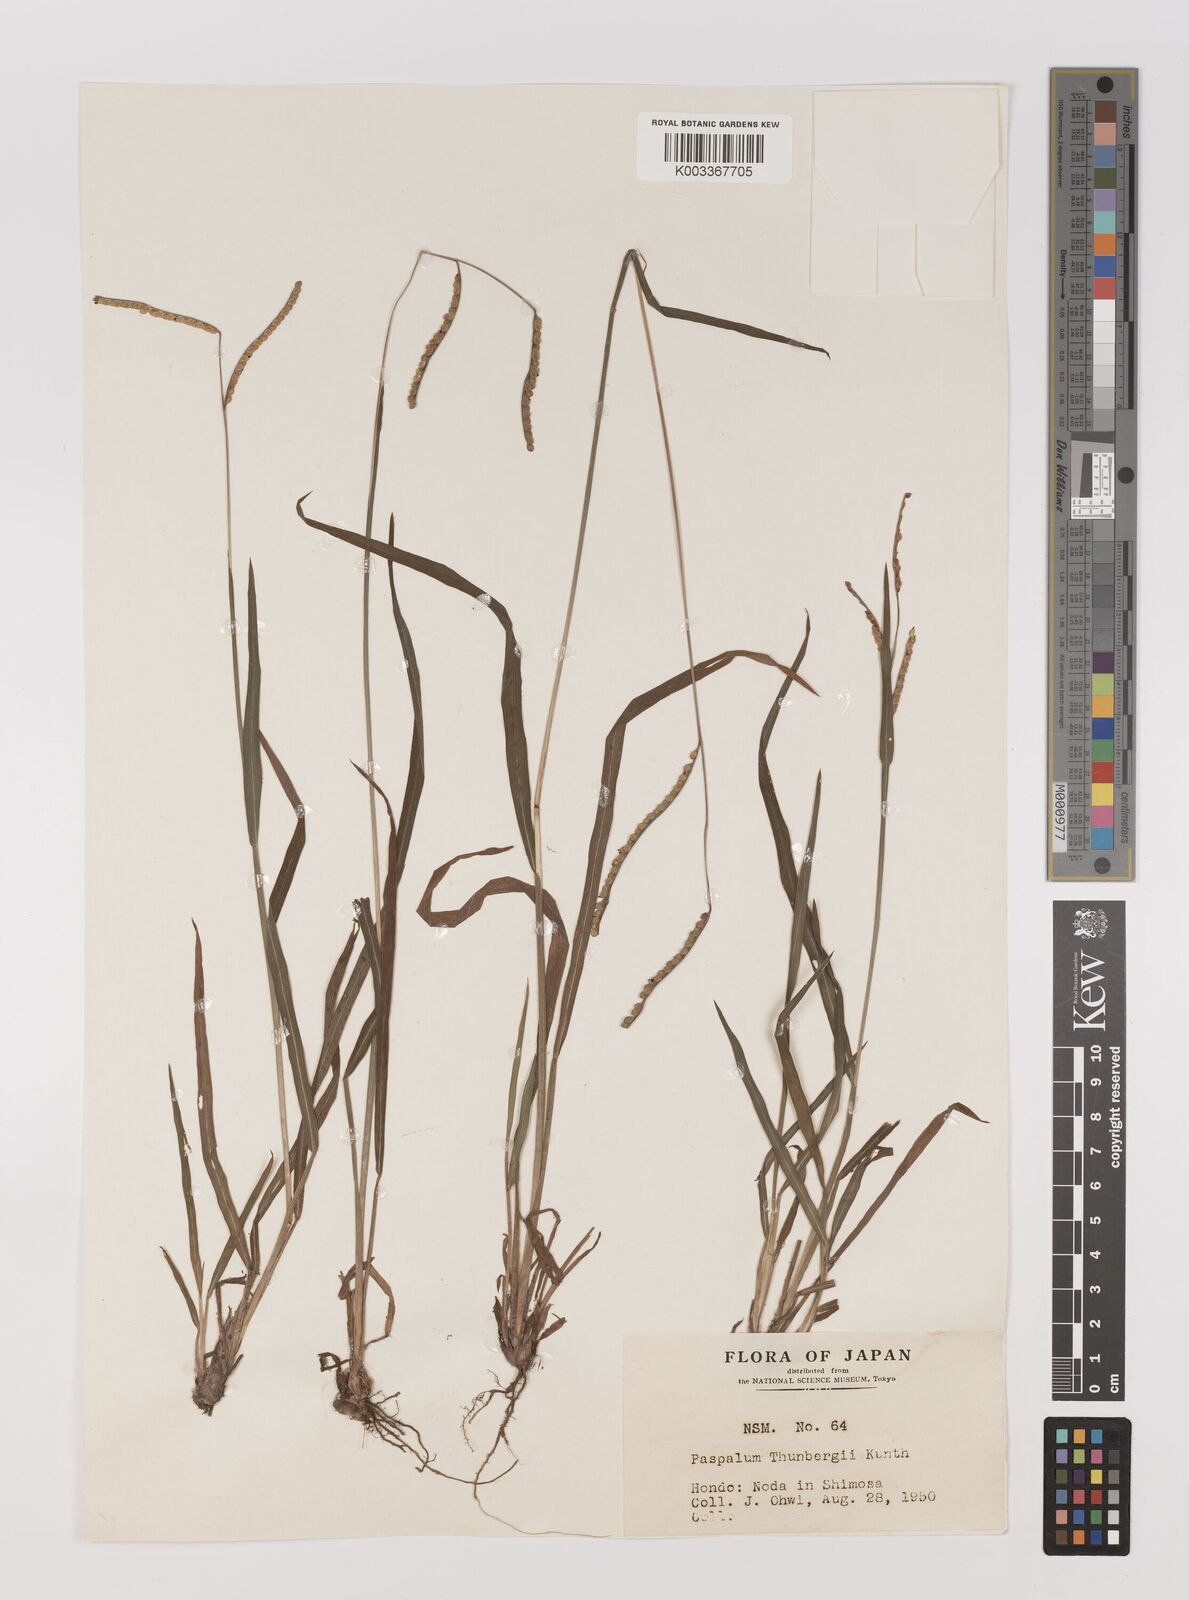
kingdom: Plantae
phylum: Tracheophyta
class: Liliopsida
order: Poales
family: Poaceae
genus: Panicum
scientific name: Panicum
